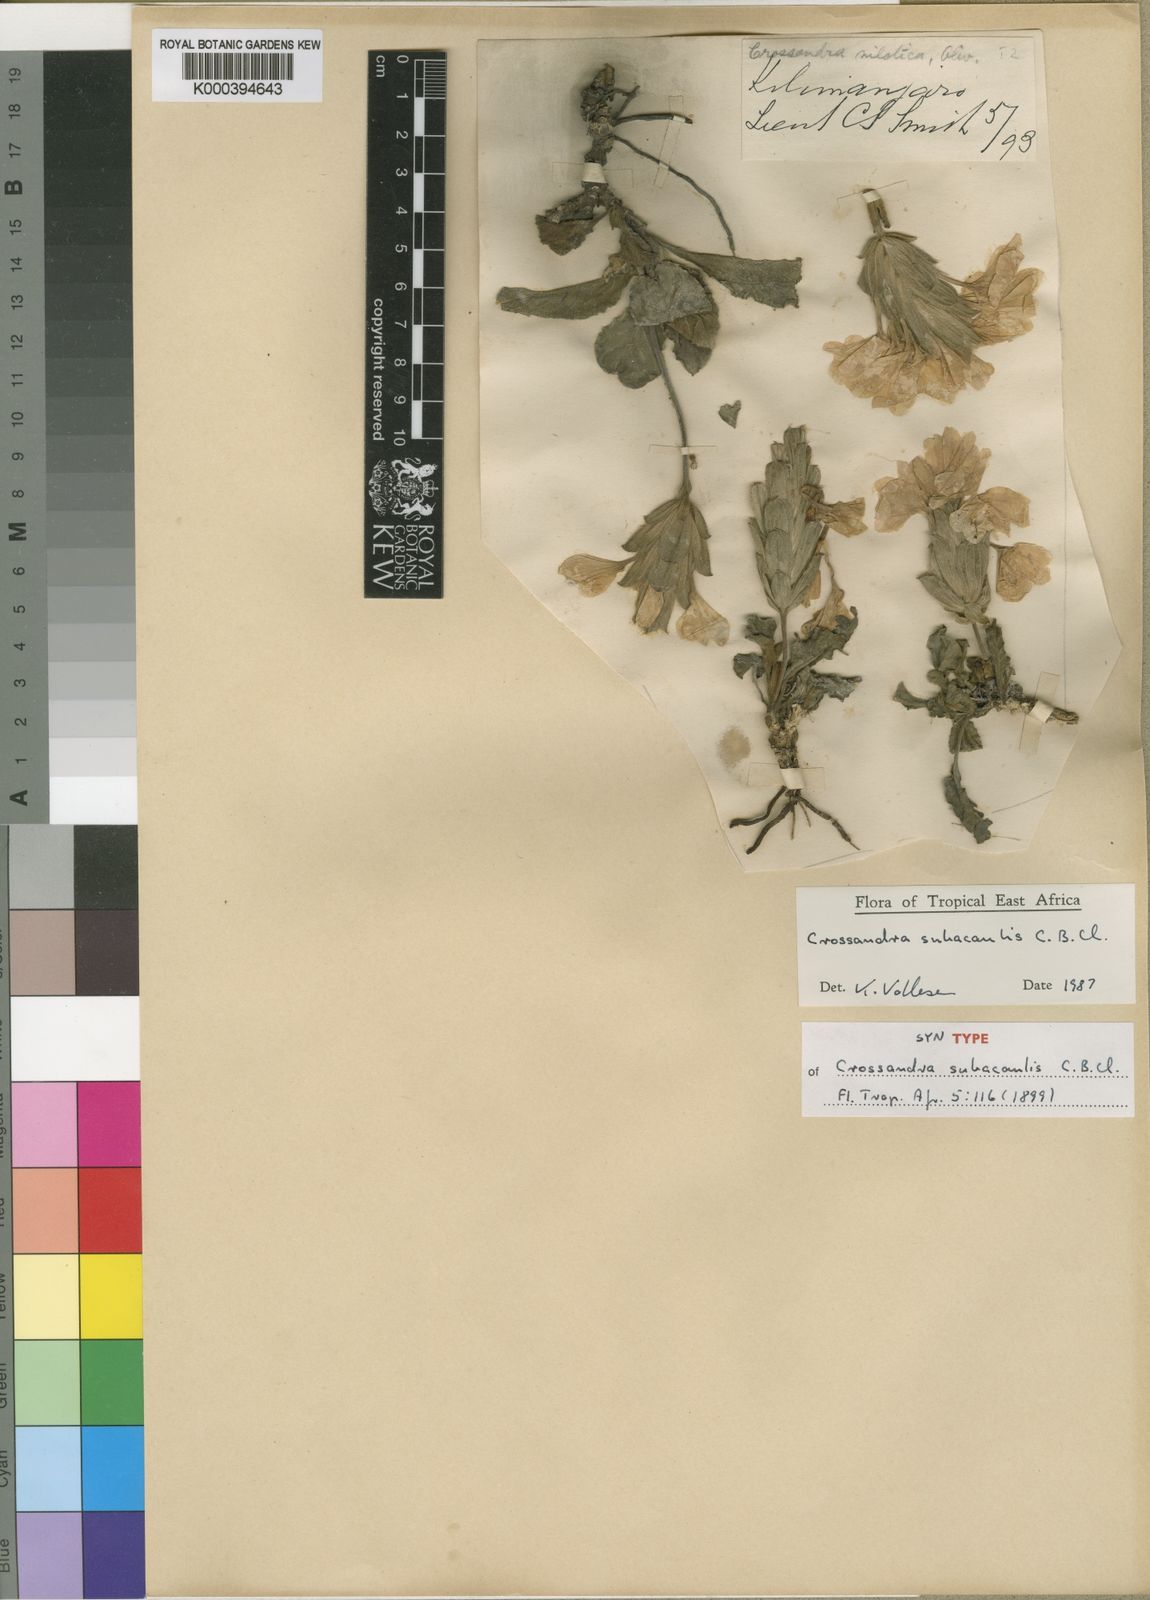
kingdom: Plantae
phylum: Tracheophyta
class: Magnoliopsida
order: Lamiales
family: Acanthaceae
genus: Crossandra
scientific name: Crossandra subacaulis
